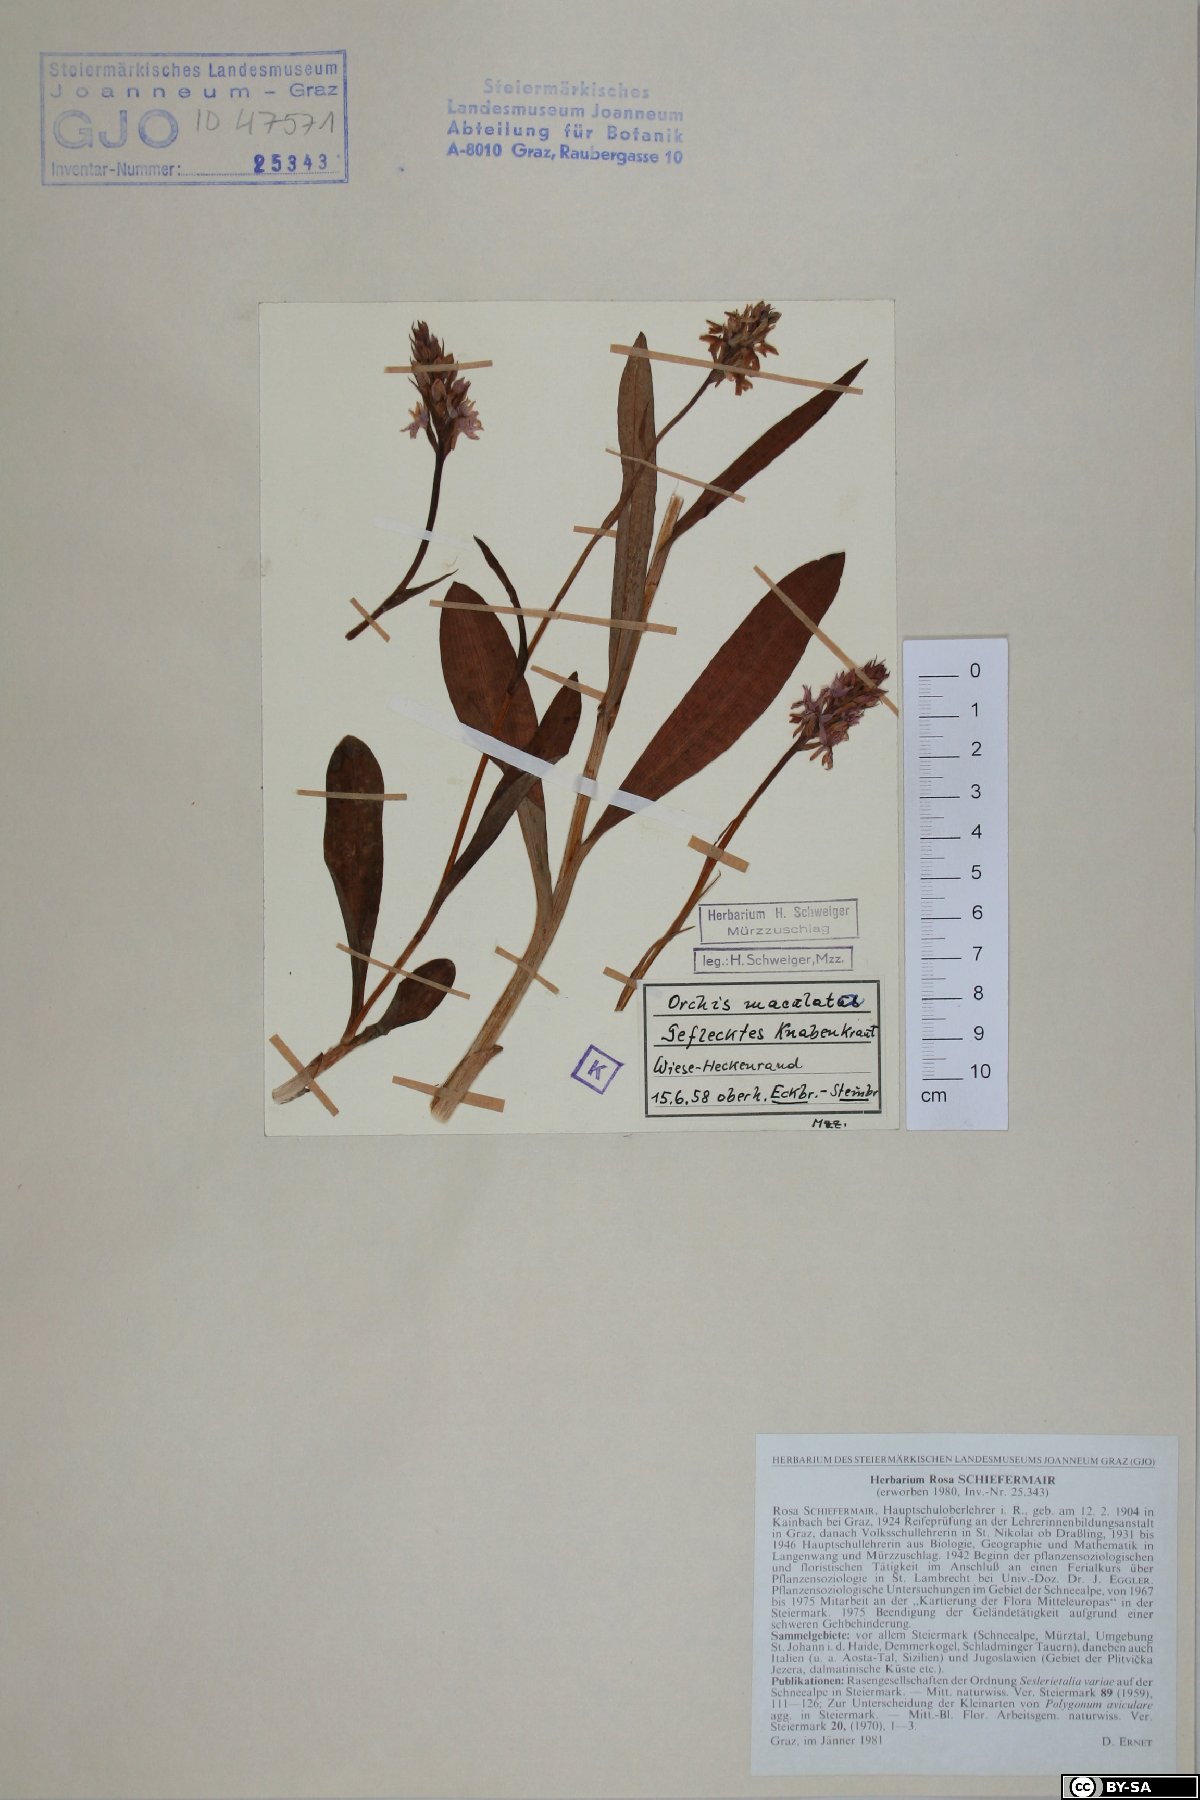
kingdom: Plantae
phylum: Tracheophyta
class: Liliopsida
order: Asparagales
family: Orchidaceae
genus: Dactylorhiza
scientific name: Dactylorhiza maculata
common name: Heath spotted-orchid
